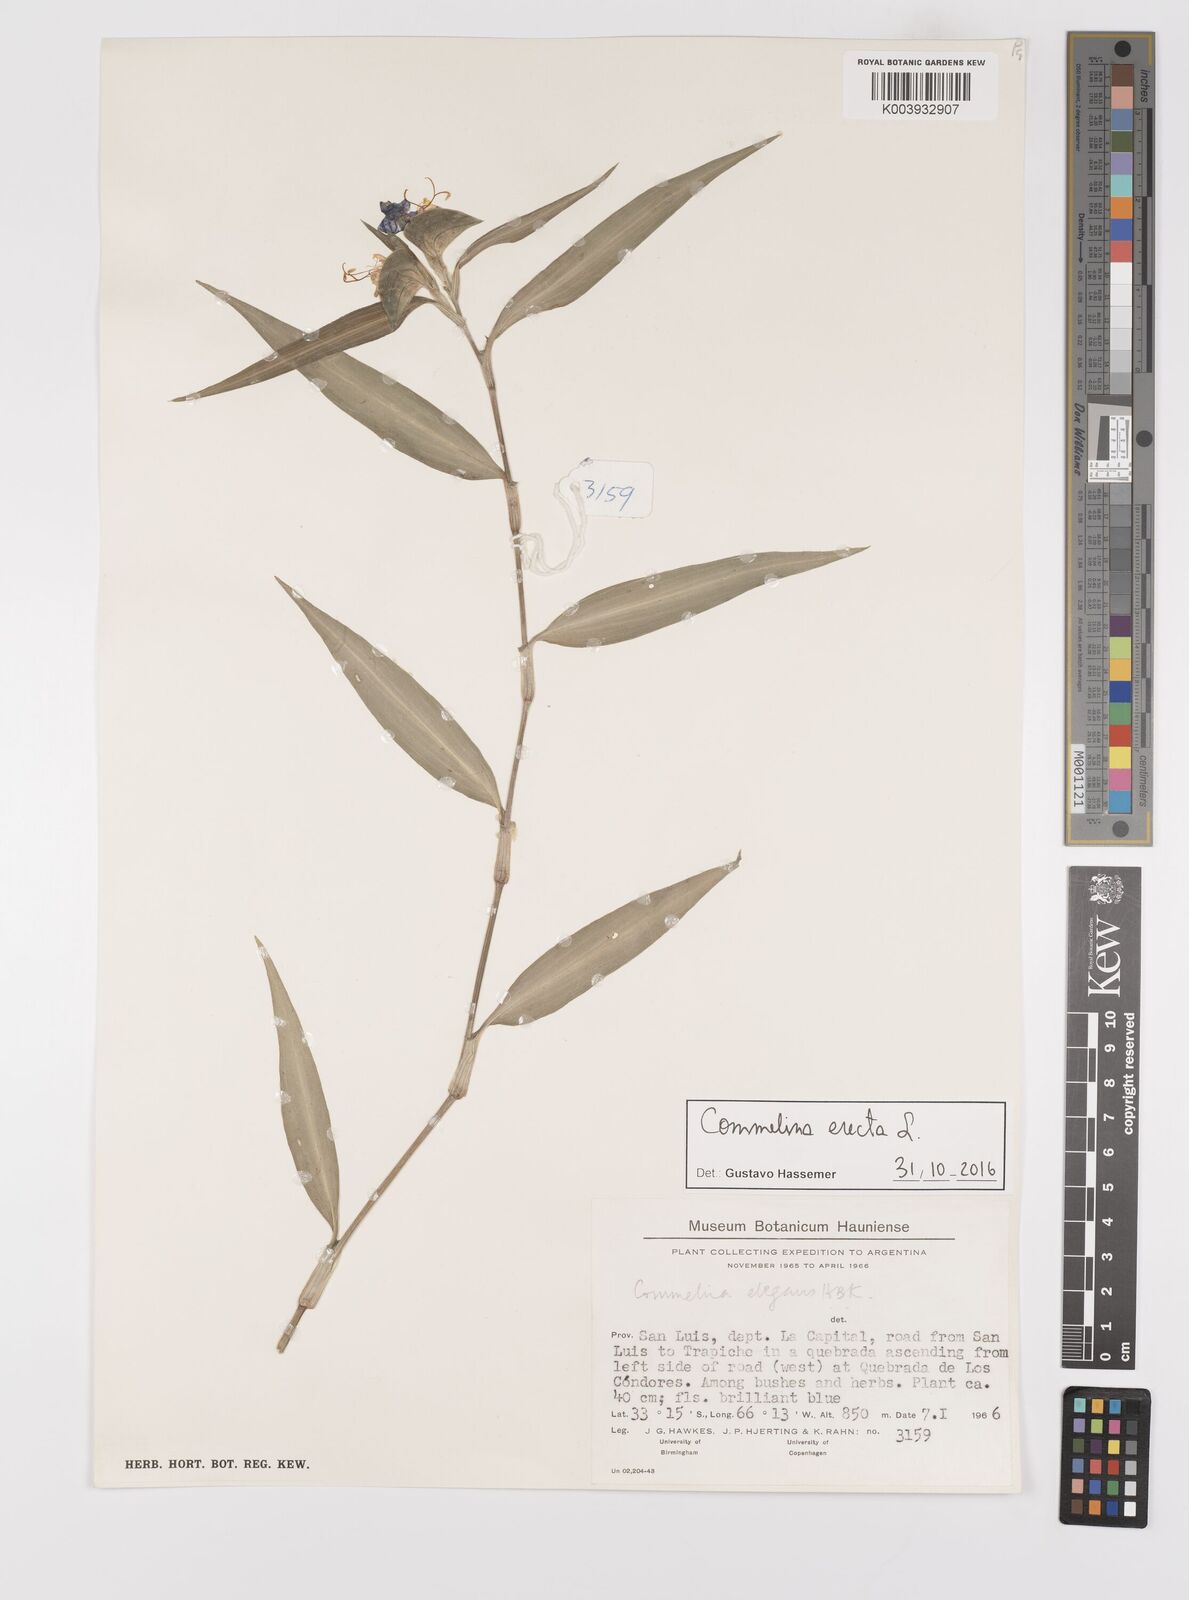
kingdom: Plantae
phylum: Tracheophyta
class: Liliopsida
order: Commelinales
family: Commelinaceae
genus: Commelina
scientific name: Commelina erecta
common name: Blousel blommetjie
